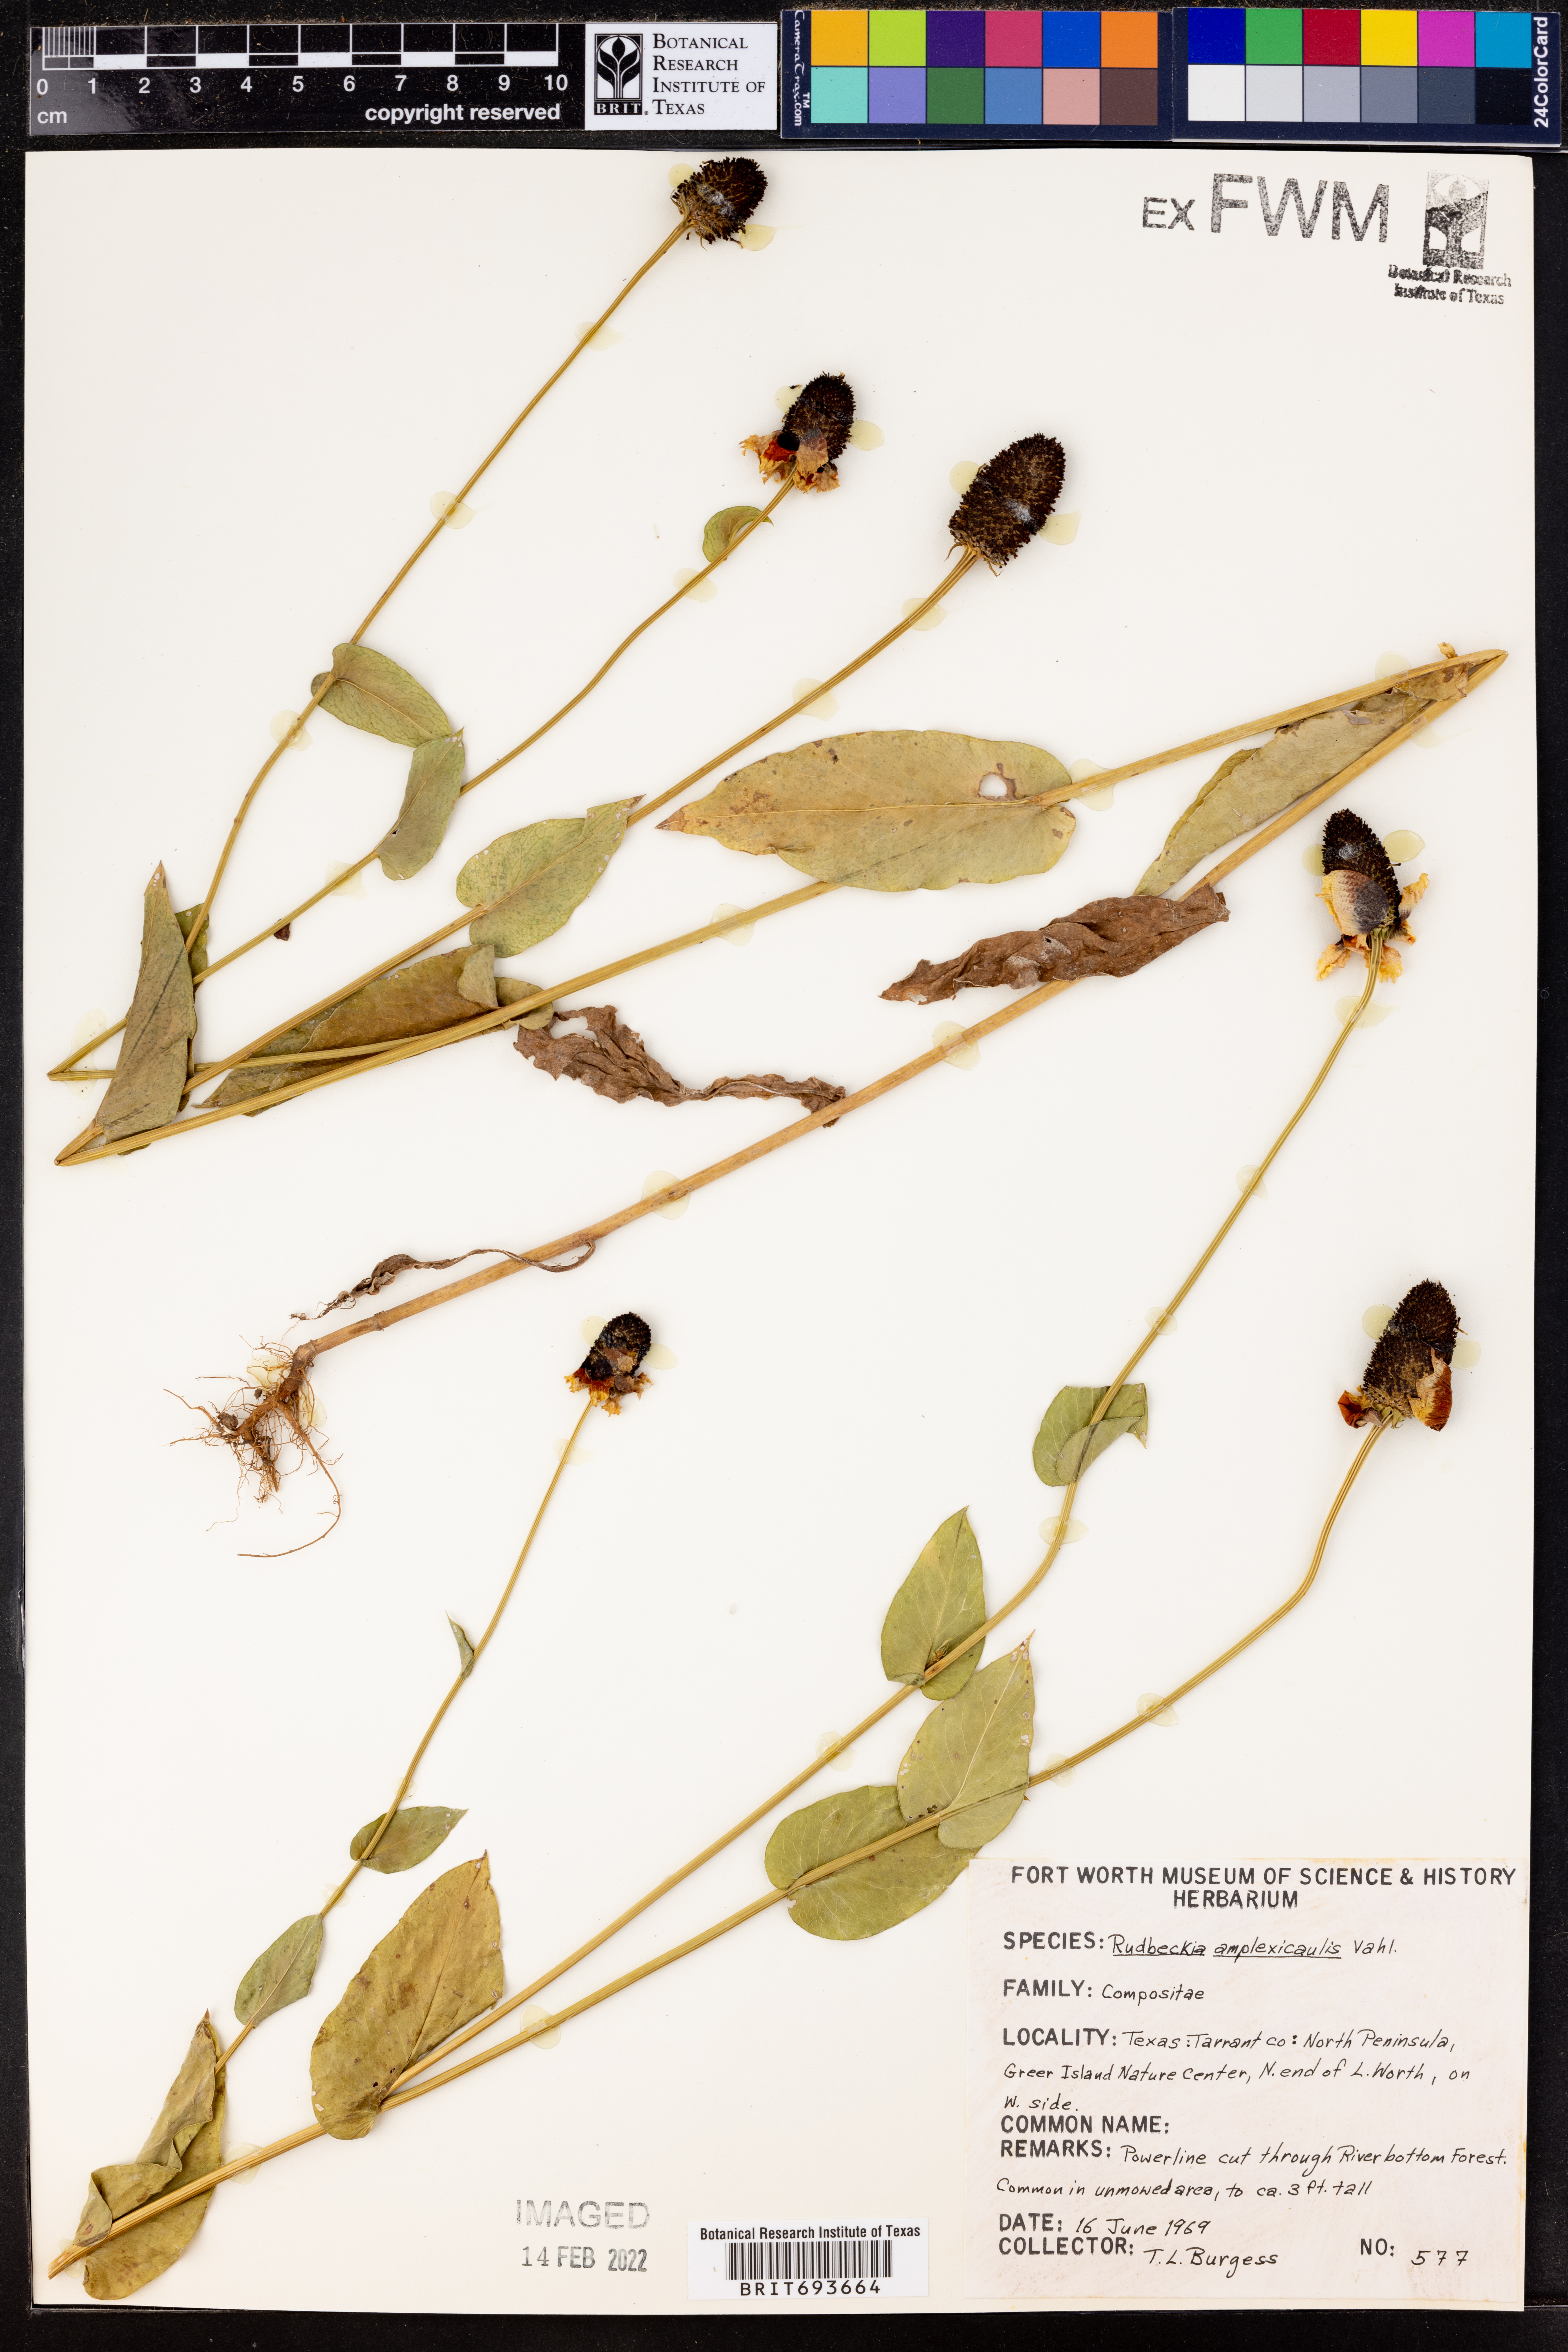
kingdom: Plantae
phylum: Tracheophyta
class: Magnoliopsida
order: Asterales
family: Asteraceae
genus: Rudbeckia
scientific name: Rudbeckia amplexicaulis
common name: Clasping-leaf coneflower
